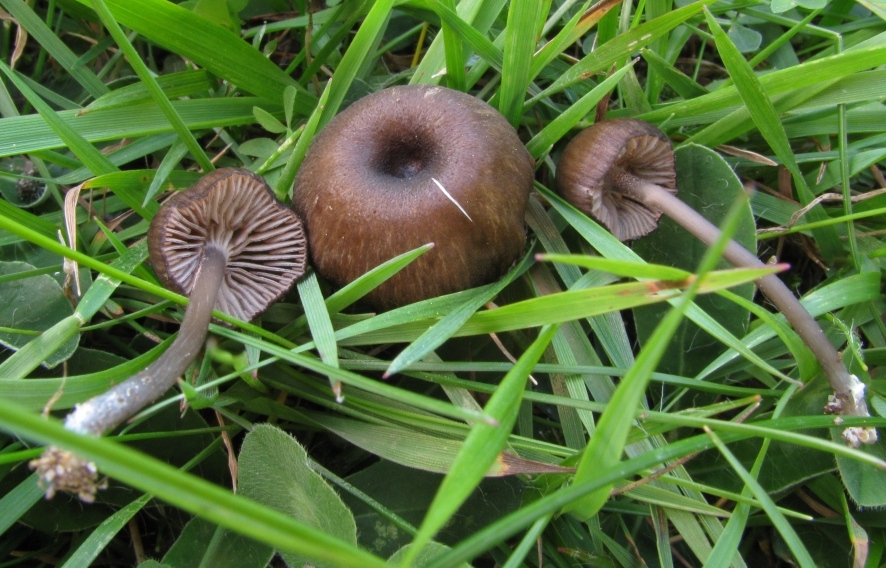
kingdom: Fungi
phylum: Basidiomycota
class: Agaricomycetes
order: Agaricales
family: Entolomataceae
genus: Entoloma
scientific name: Entoloma caesiocinctum
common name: Blue-girdled pinkgill
